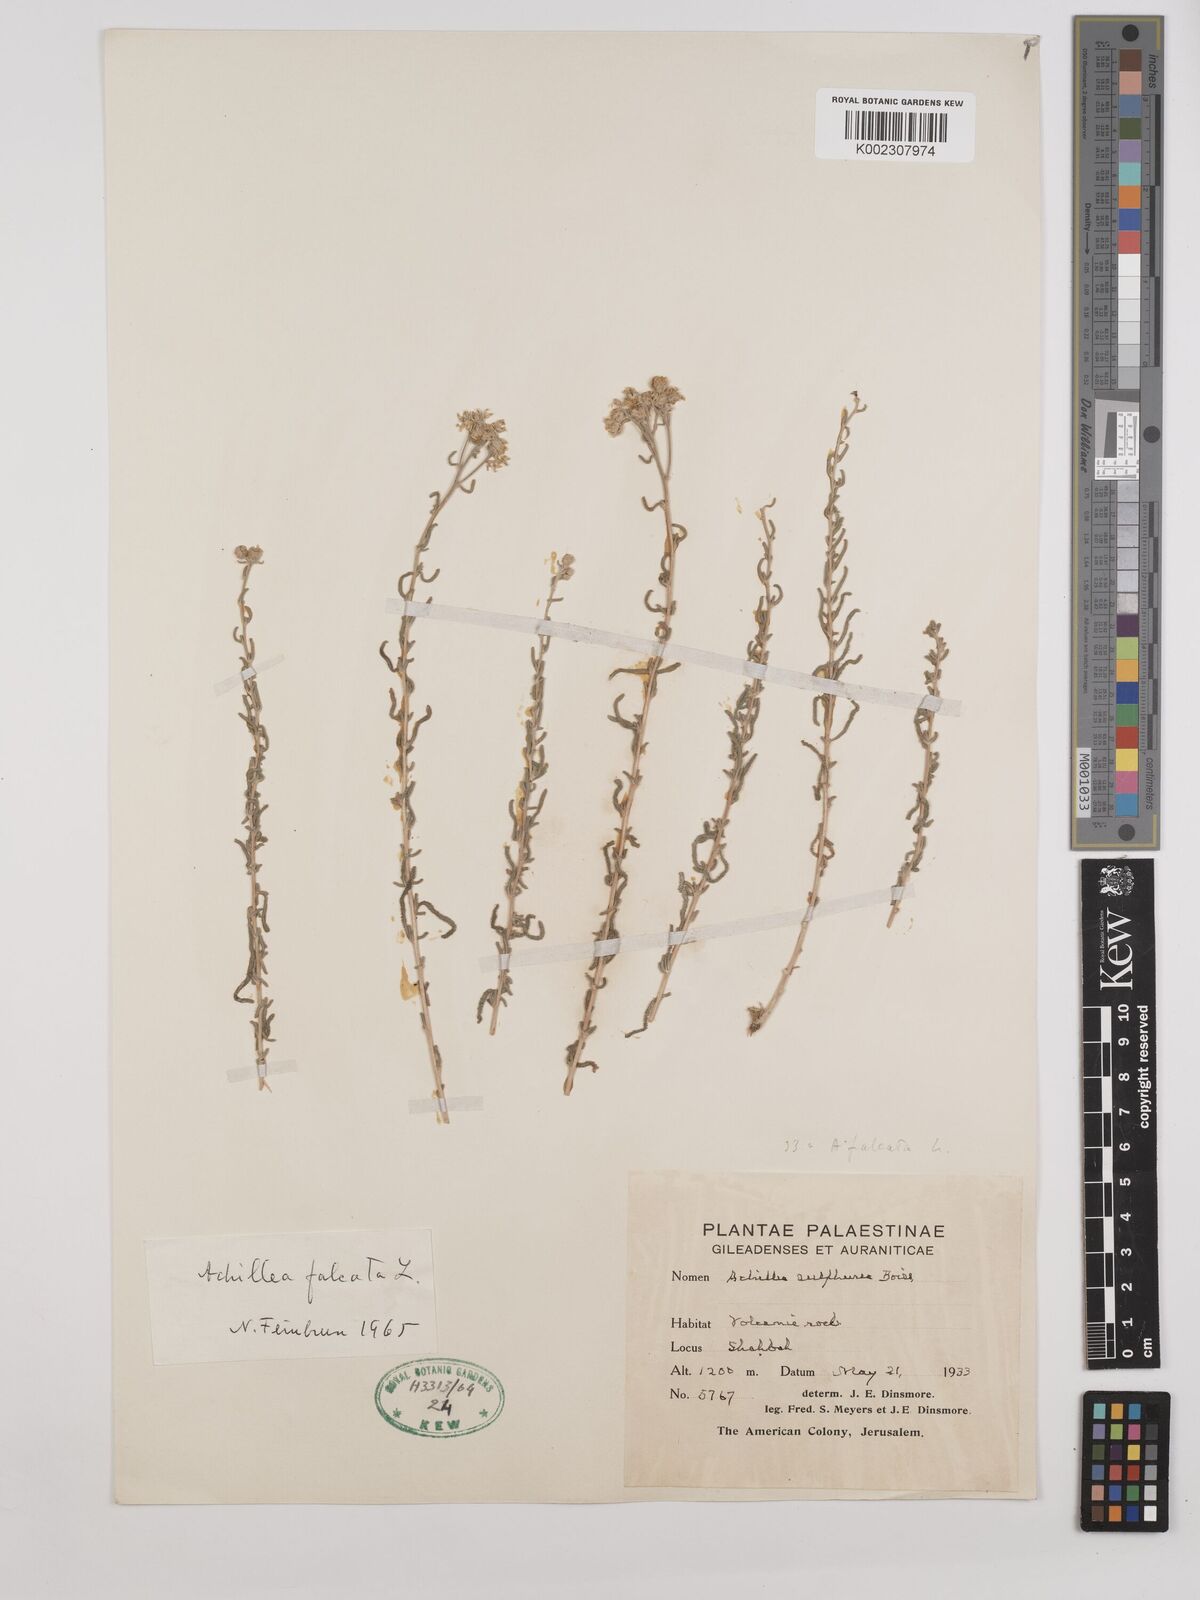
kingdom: Plantae
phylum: Tracheophyta
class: Magnoliopsida
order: Asterales
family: Asteraceae
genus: Achillea
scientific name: Achillea falcata
